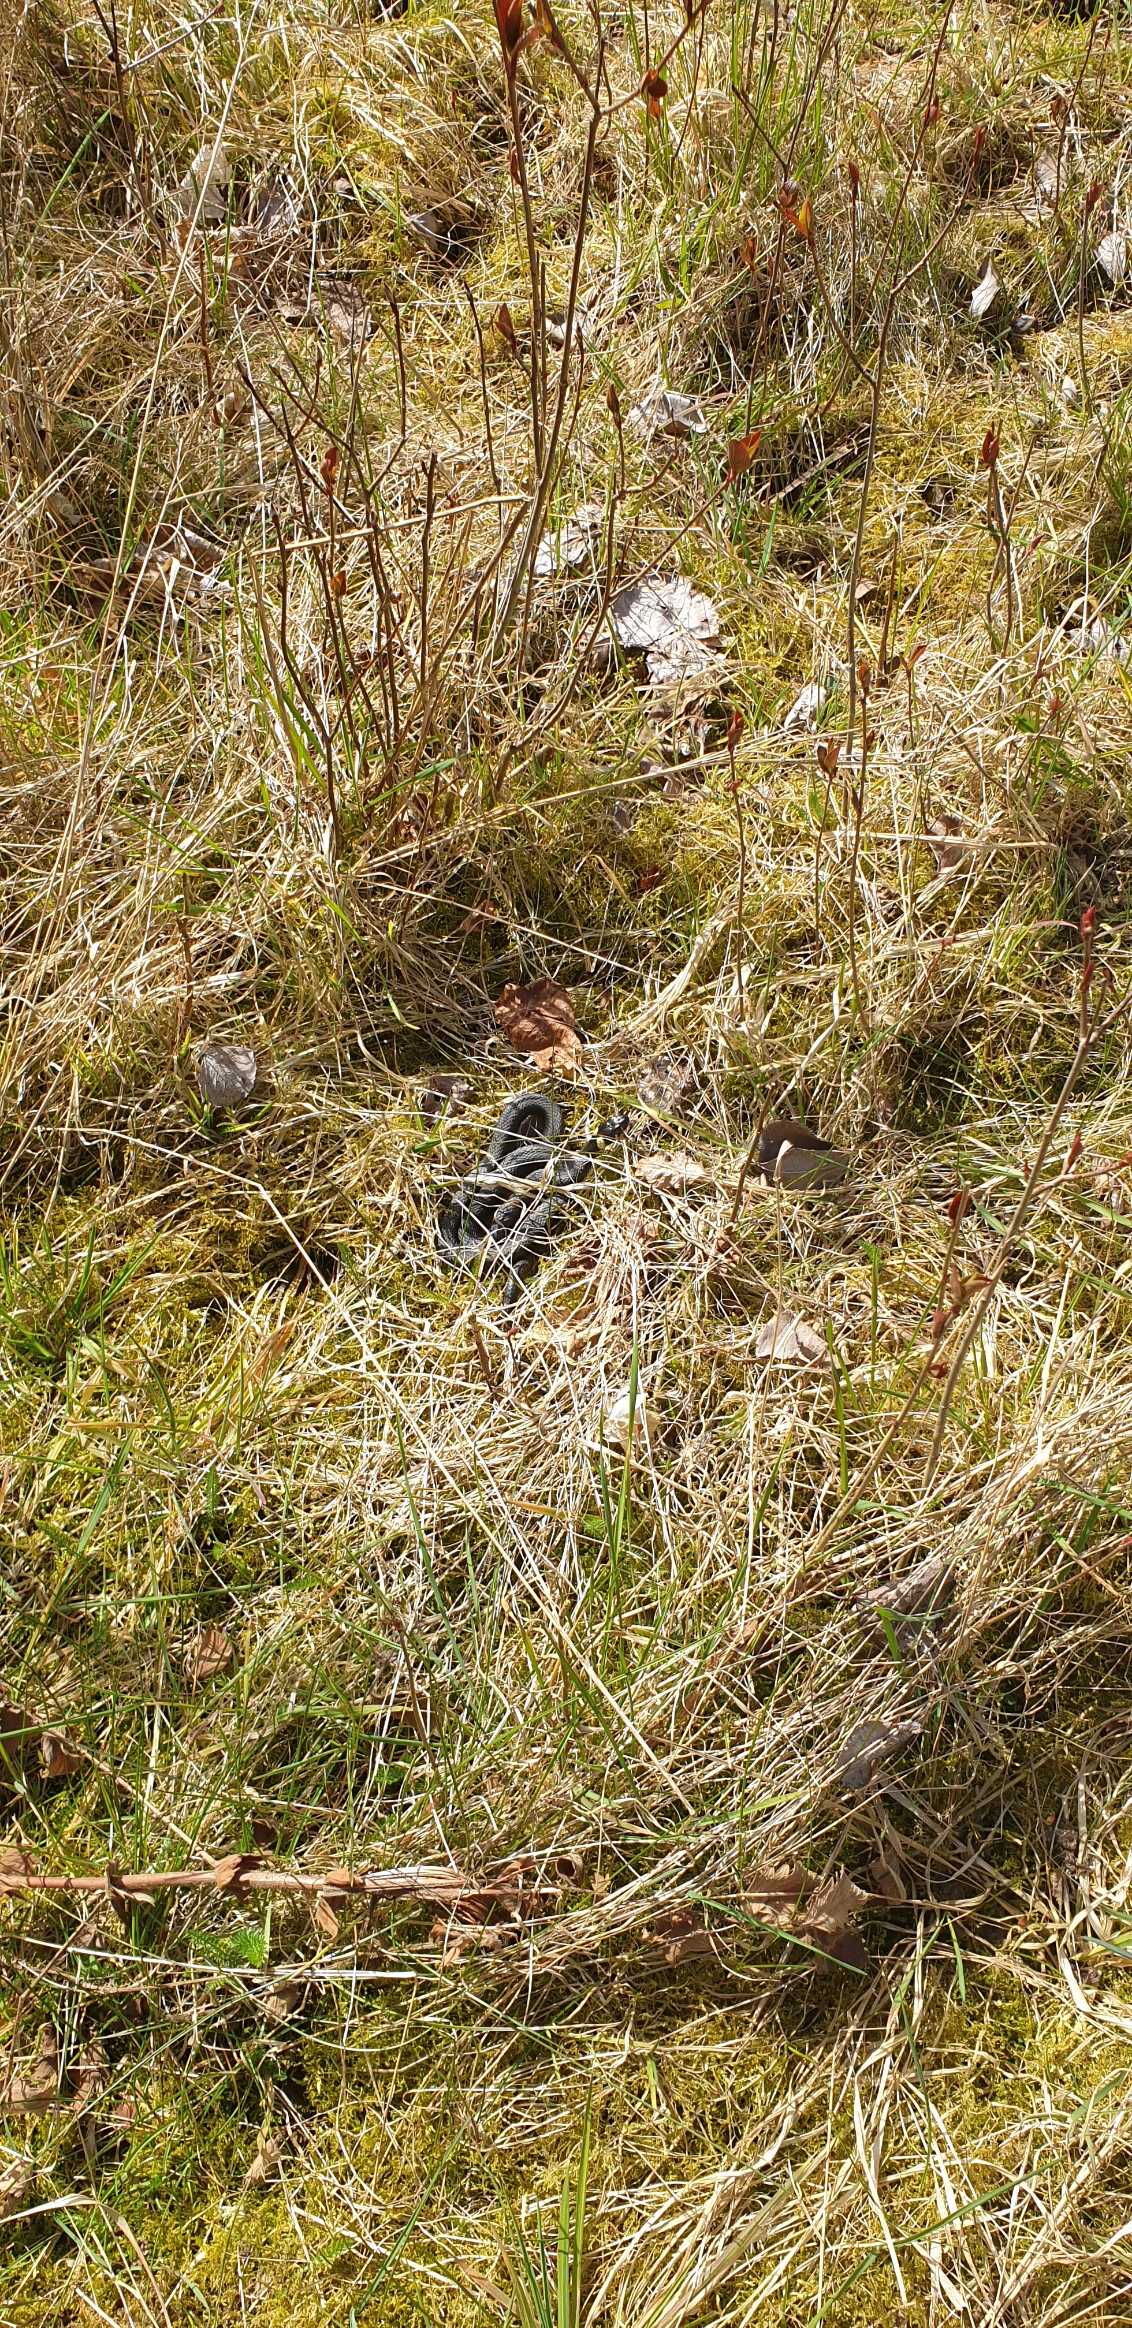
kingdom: Animalia
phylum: Chordata
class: Squamata
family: Colubridae
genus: Natrix
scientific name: Natrix natrix
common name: Snog
